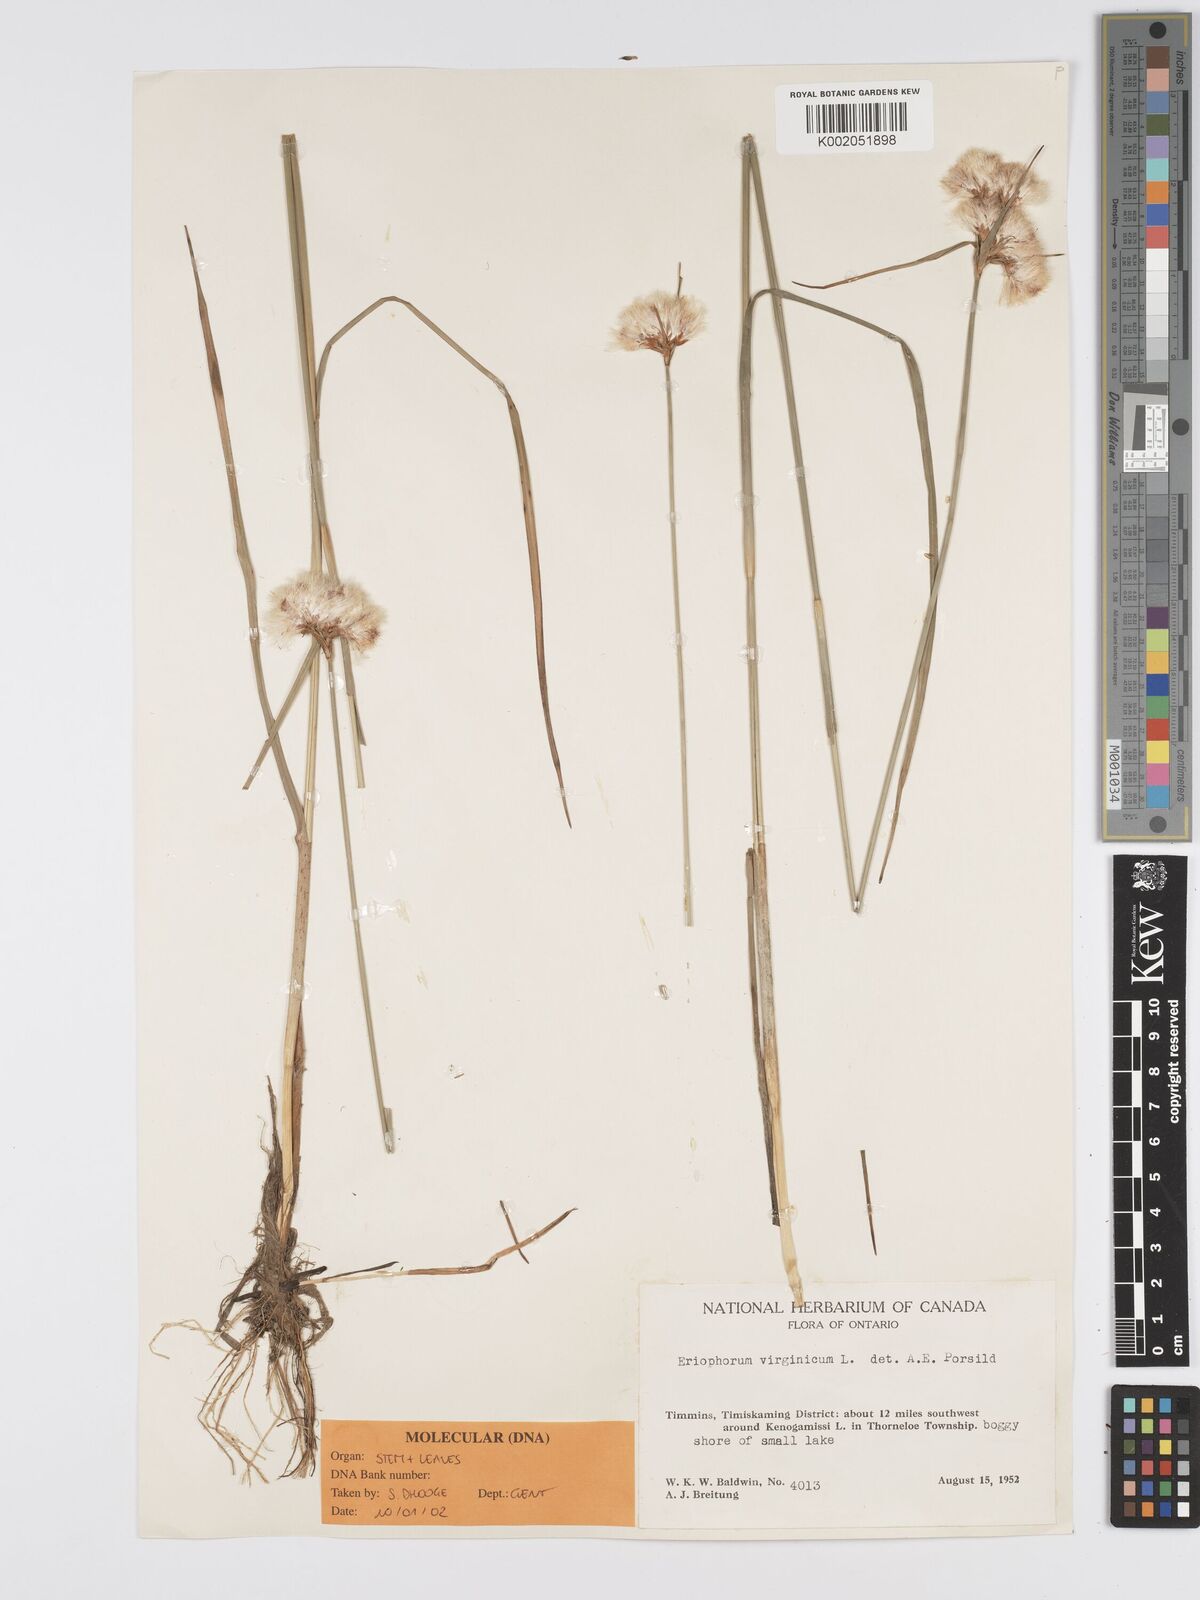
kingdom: Plantae
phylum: Tracheophyta
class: Liliopsida
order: Poales
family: Cyperaceae
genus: Eriophorum
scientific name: Eriophorum virginicum
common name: Tawny cottongrass
